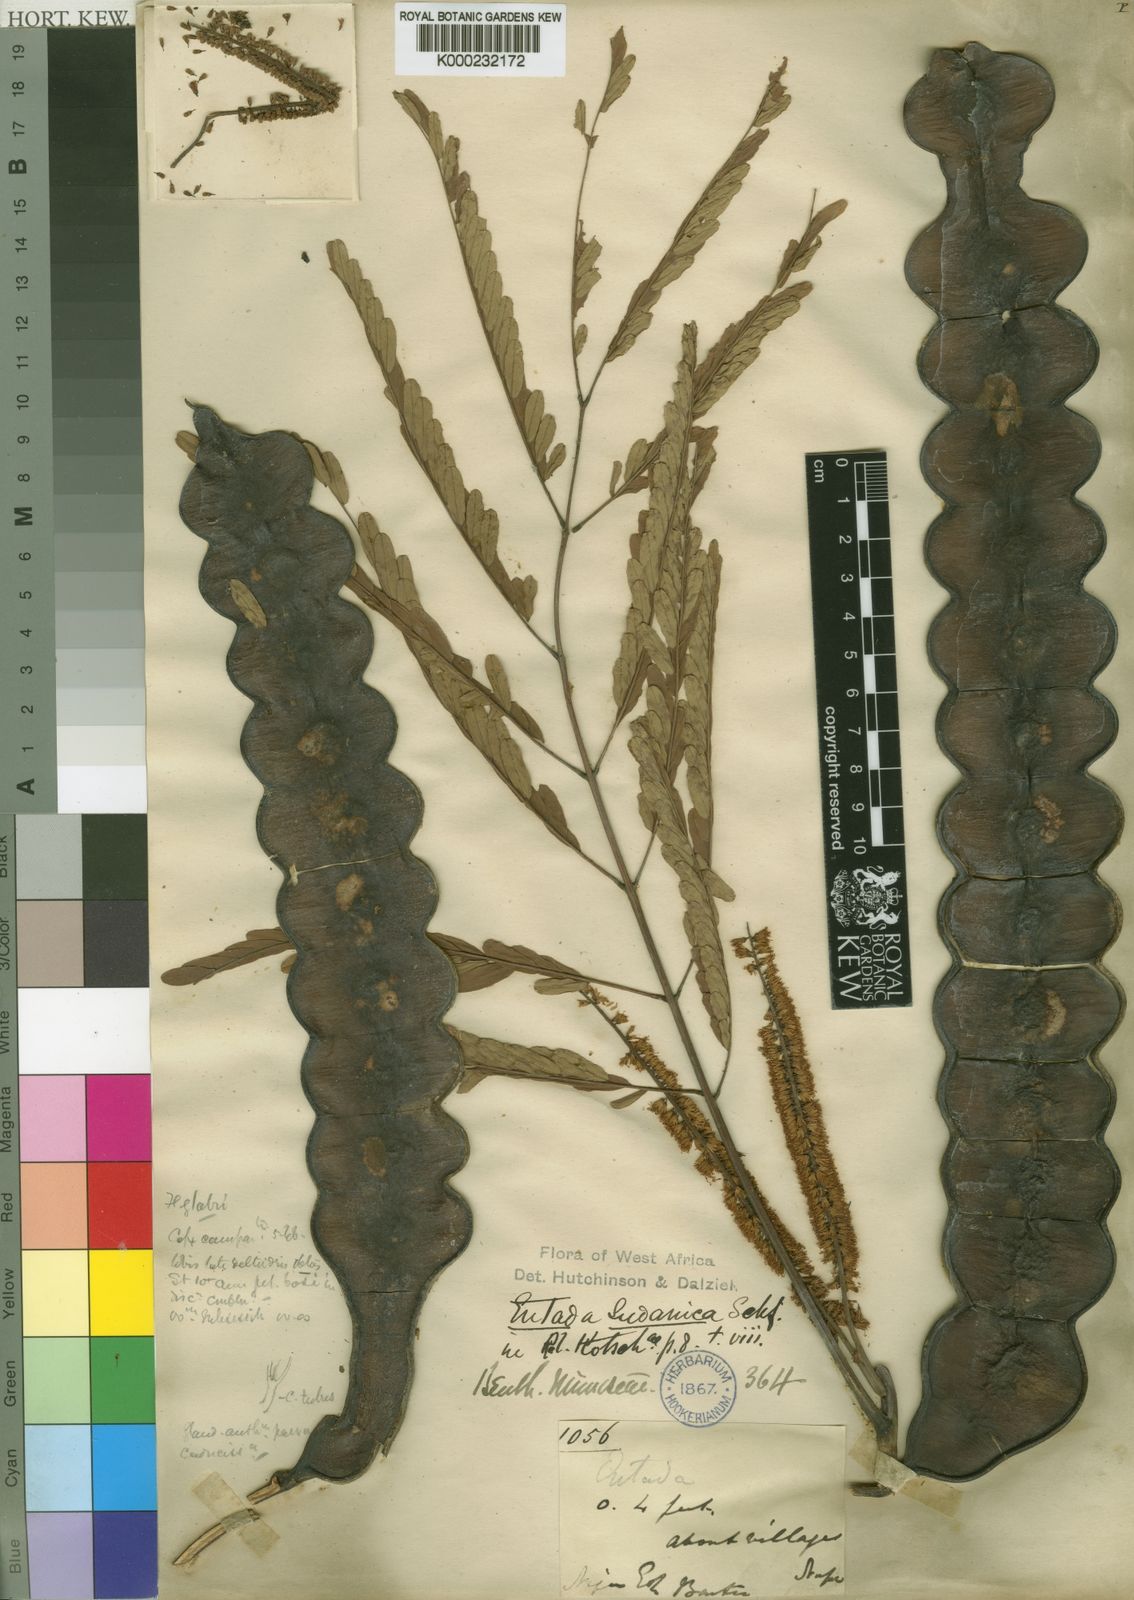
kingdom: Plantae
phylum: Tracheophyta
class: Magnoliopsida
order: Fabales
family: Fabaceae
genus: Entada
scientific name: Entada africana
